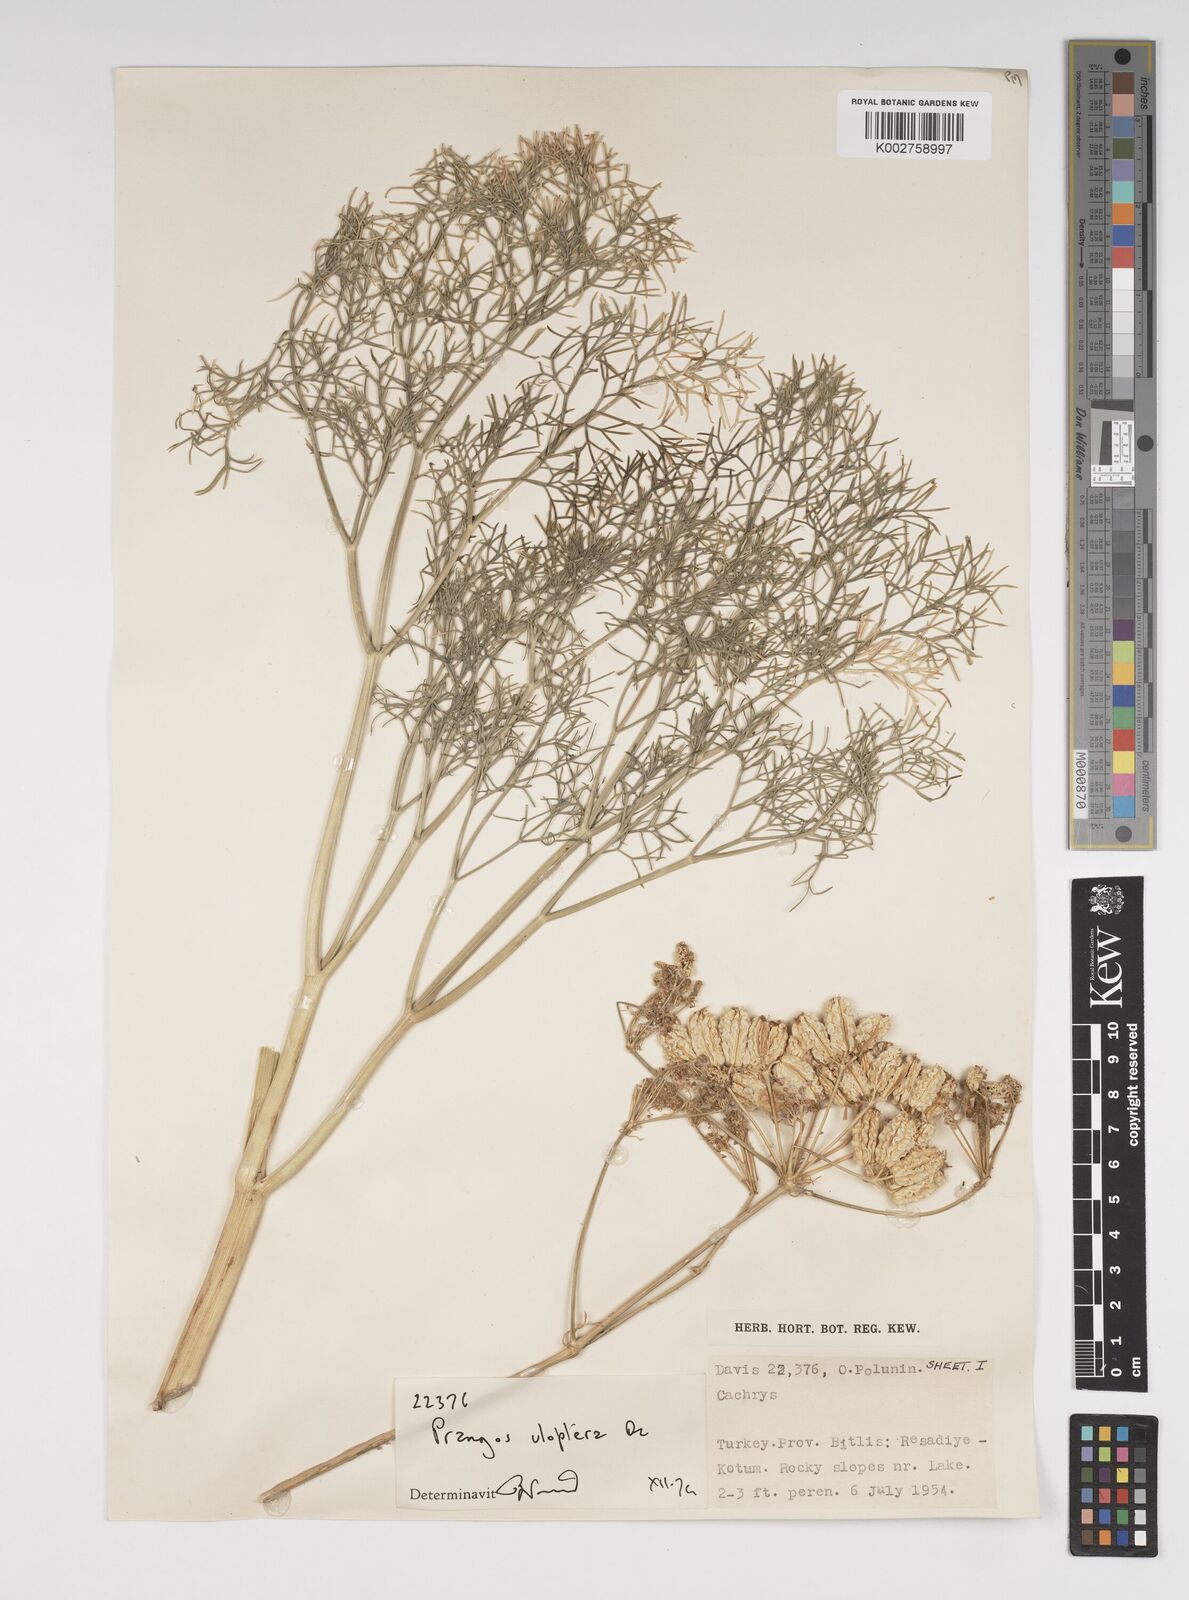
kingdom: Plantae
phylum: Tracheophyta
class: Magnoliopsida
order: Apiales
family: Apiaceae
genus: Prangos
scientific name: Prangos uloptera
